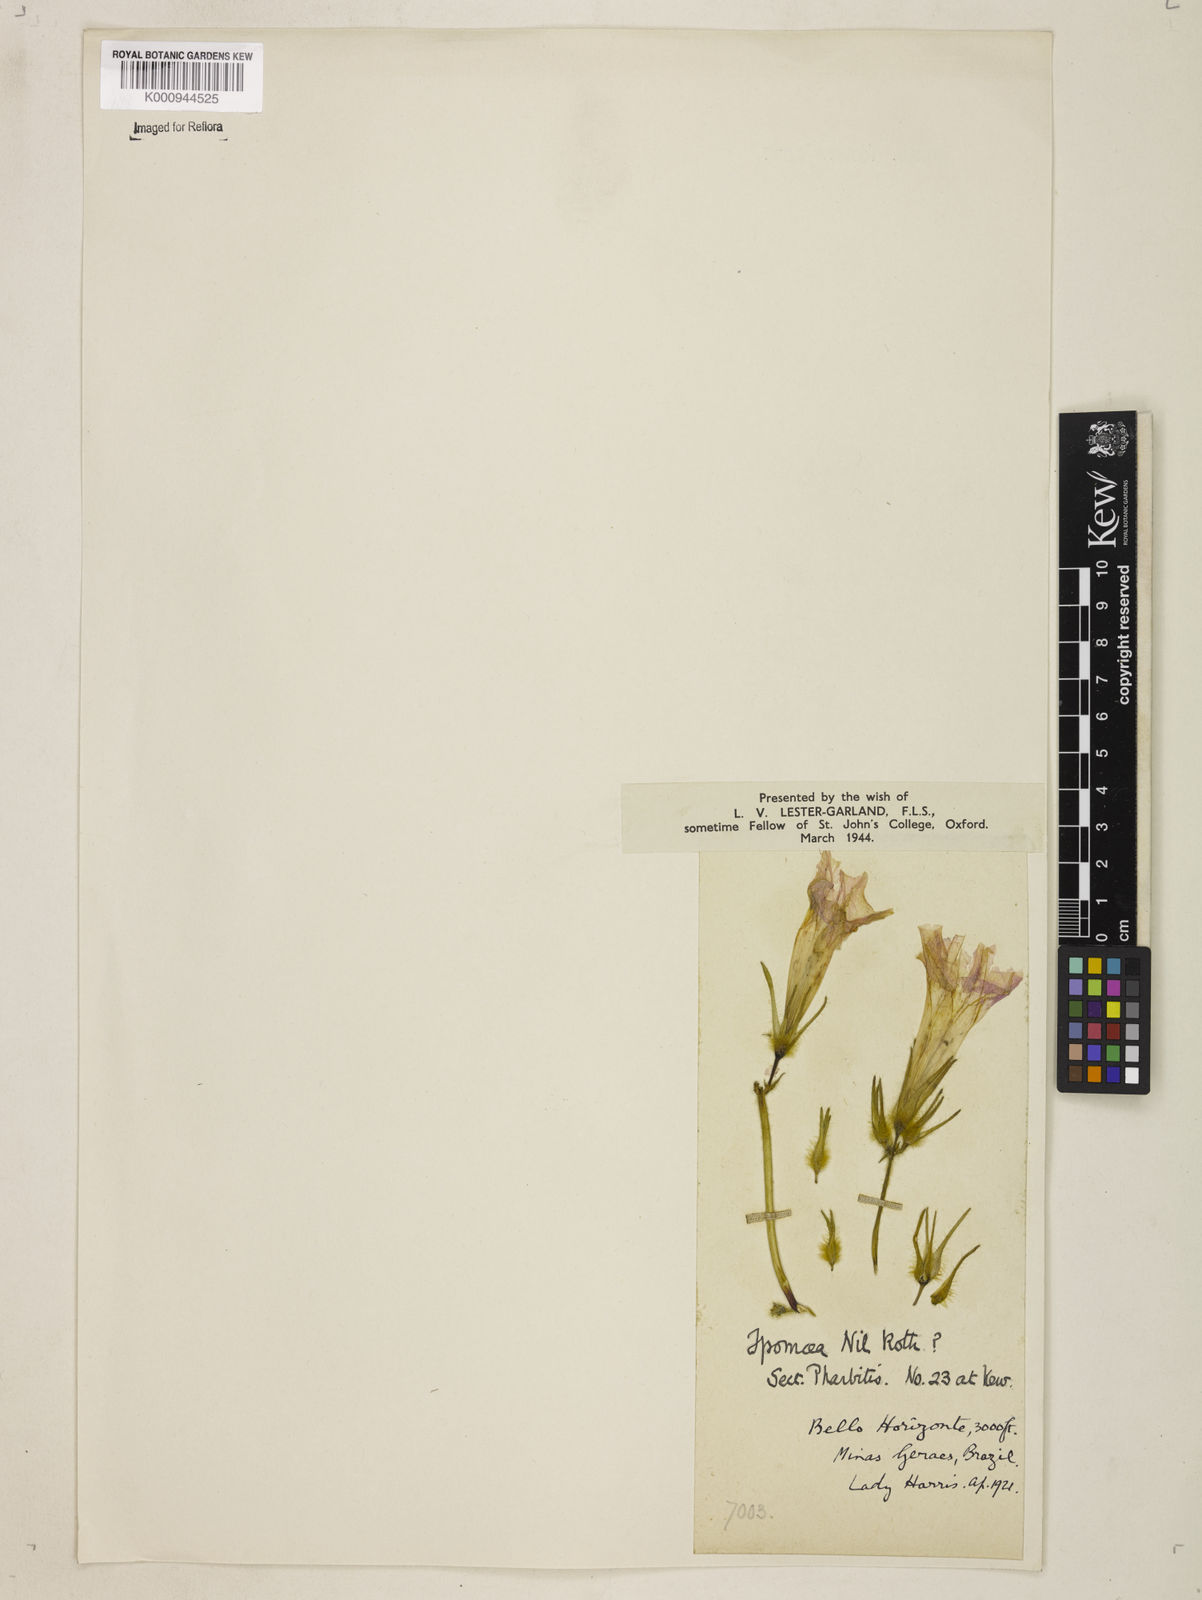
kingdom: Plantae
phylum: Tracheophyta
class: Magnoliopsida
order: Solanales
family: Convolvulaceae
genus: Ipomoea
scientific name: Ipomoea nil
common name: Japanese morning-glory
